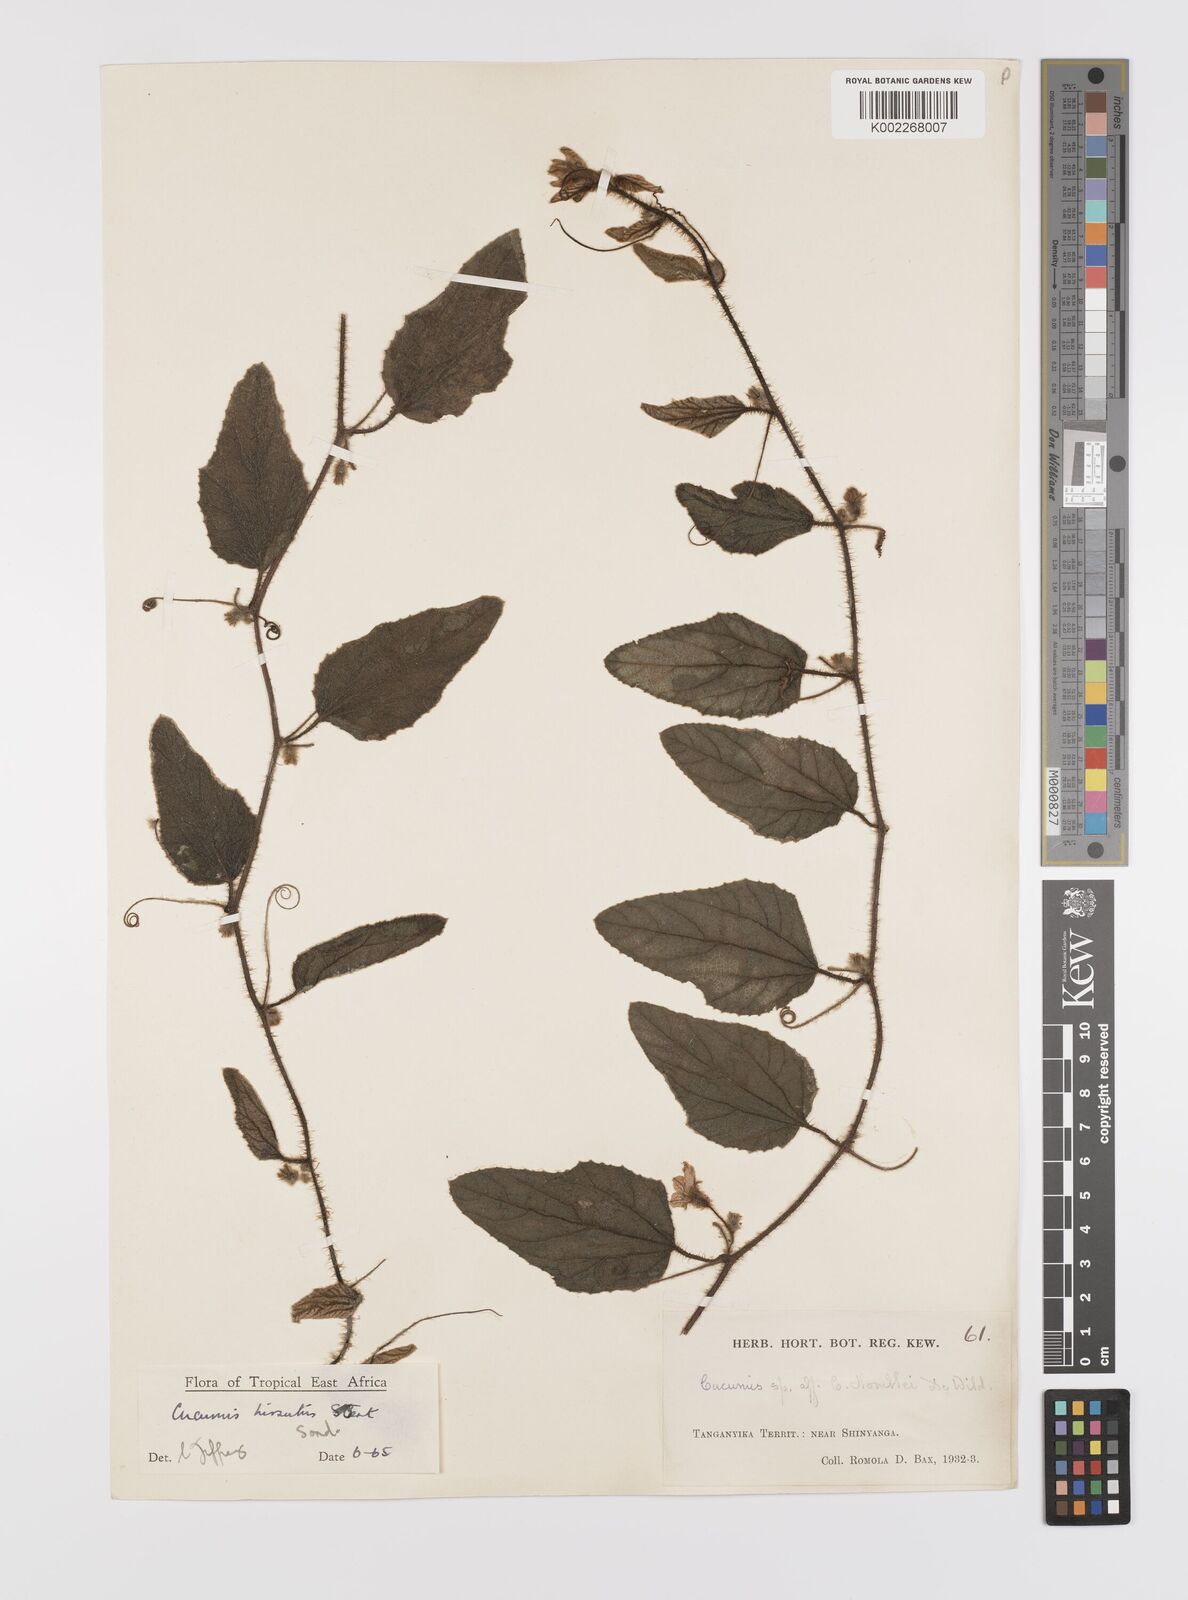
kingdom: Plantae
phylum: Tracheophyta
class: Magnoliopsida
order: Cucurbitales
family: Cucurbitaceae
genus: Cucumis
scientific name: Cucumis hirsutus
